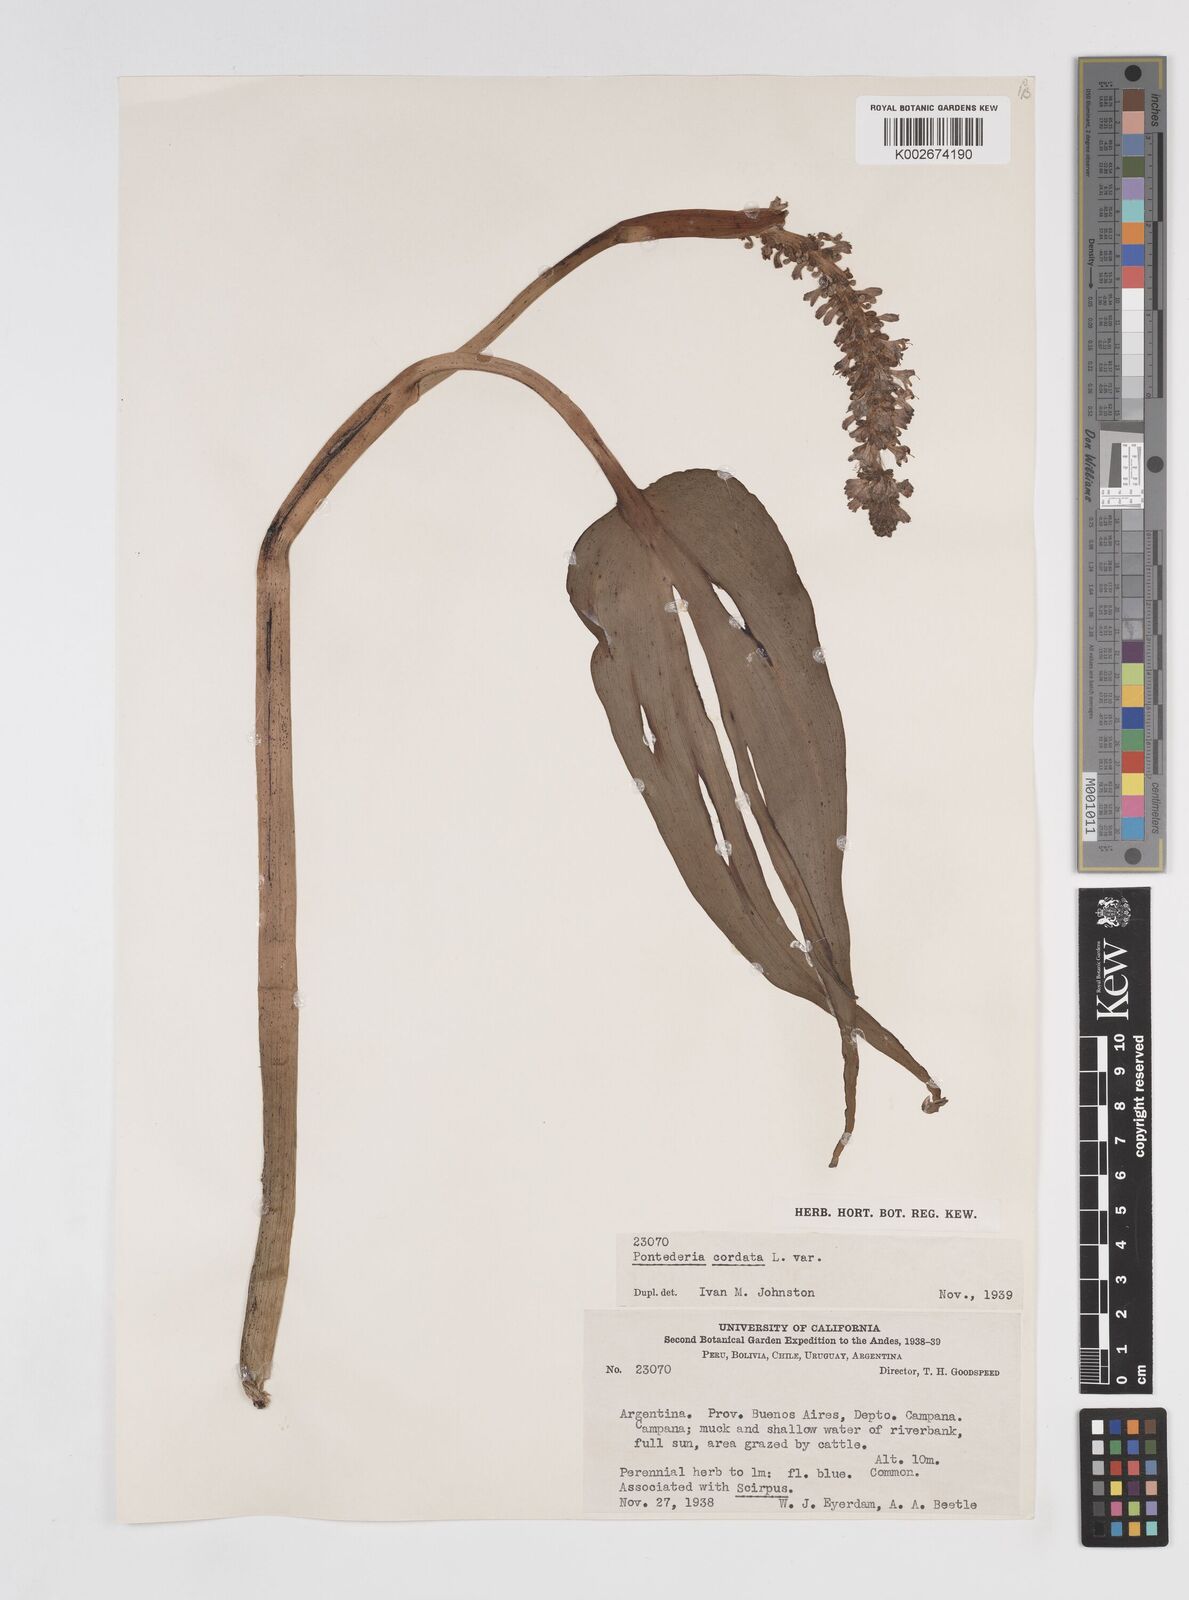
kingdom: Plantae
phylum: Tracheophyta
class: Liliopsida
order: Commelinales
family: Pontederiaceae
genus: Pontederia
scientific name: Pontederia
